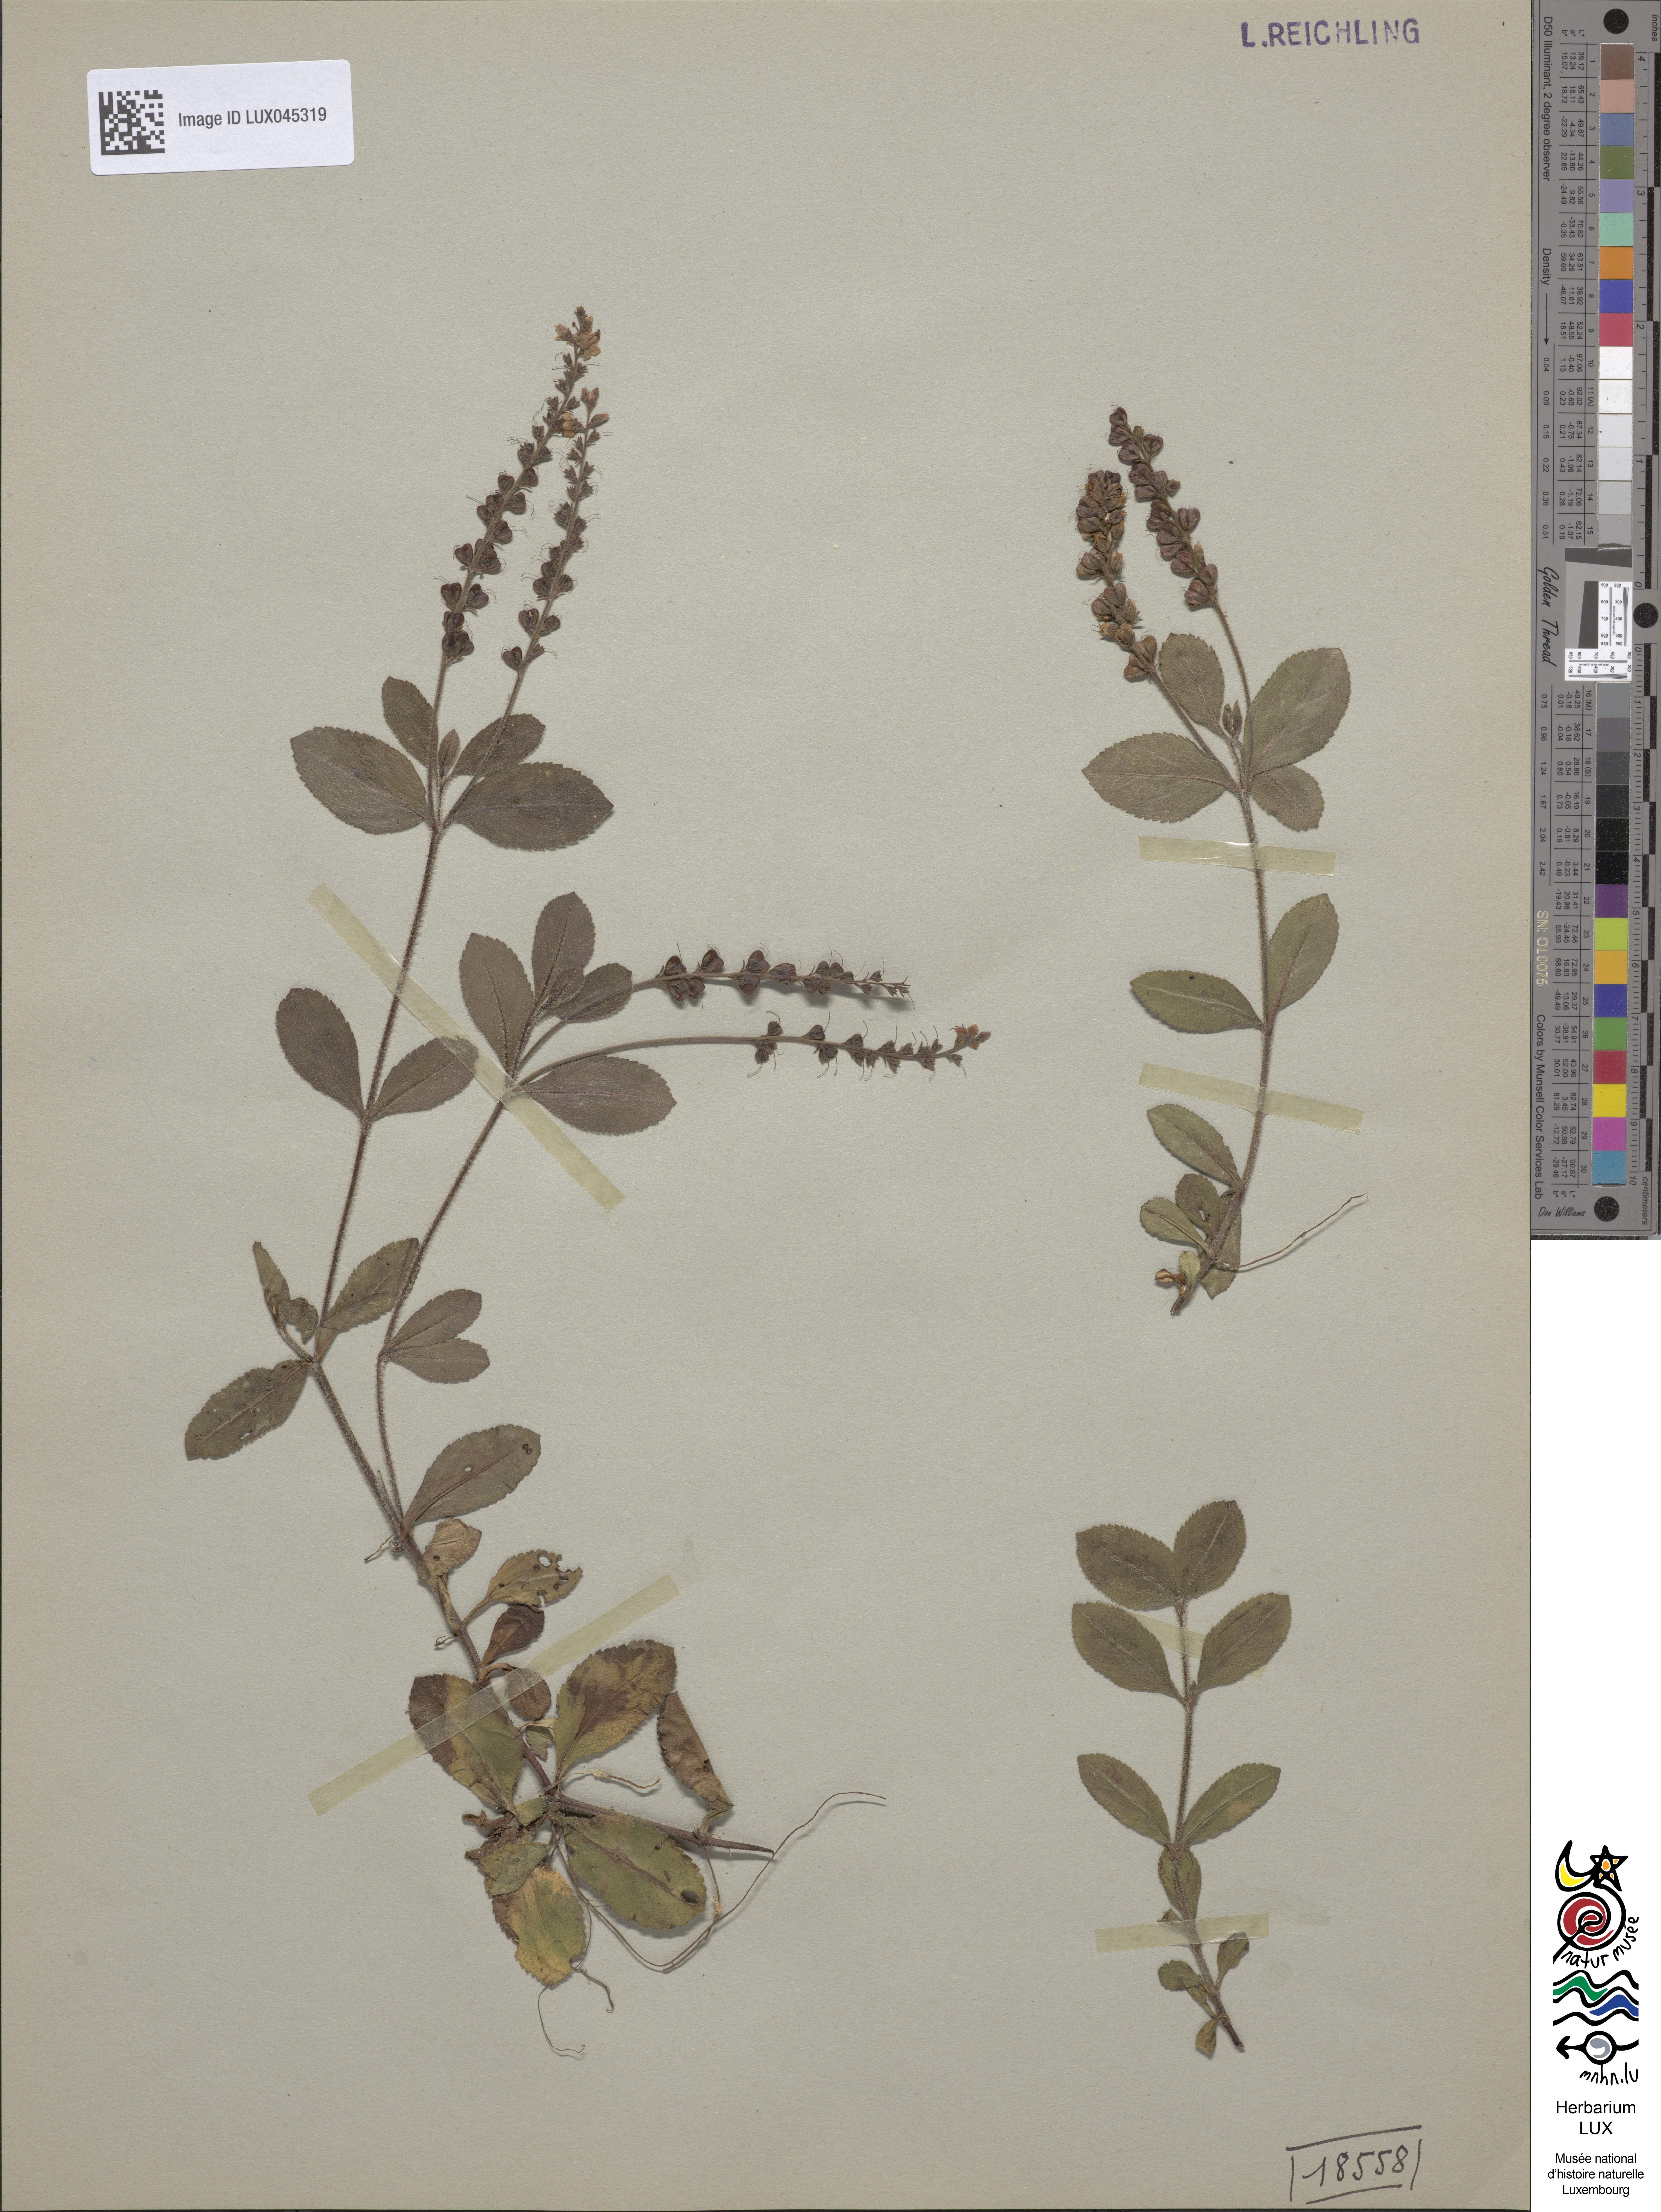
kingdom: Plantae
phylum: Tracheophyta
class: Magnoliopsida
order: Lamiales
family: Plantaginaceae
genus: Veronica
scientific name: Veronica officinalis
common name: Common speedwell
